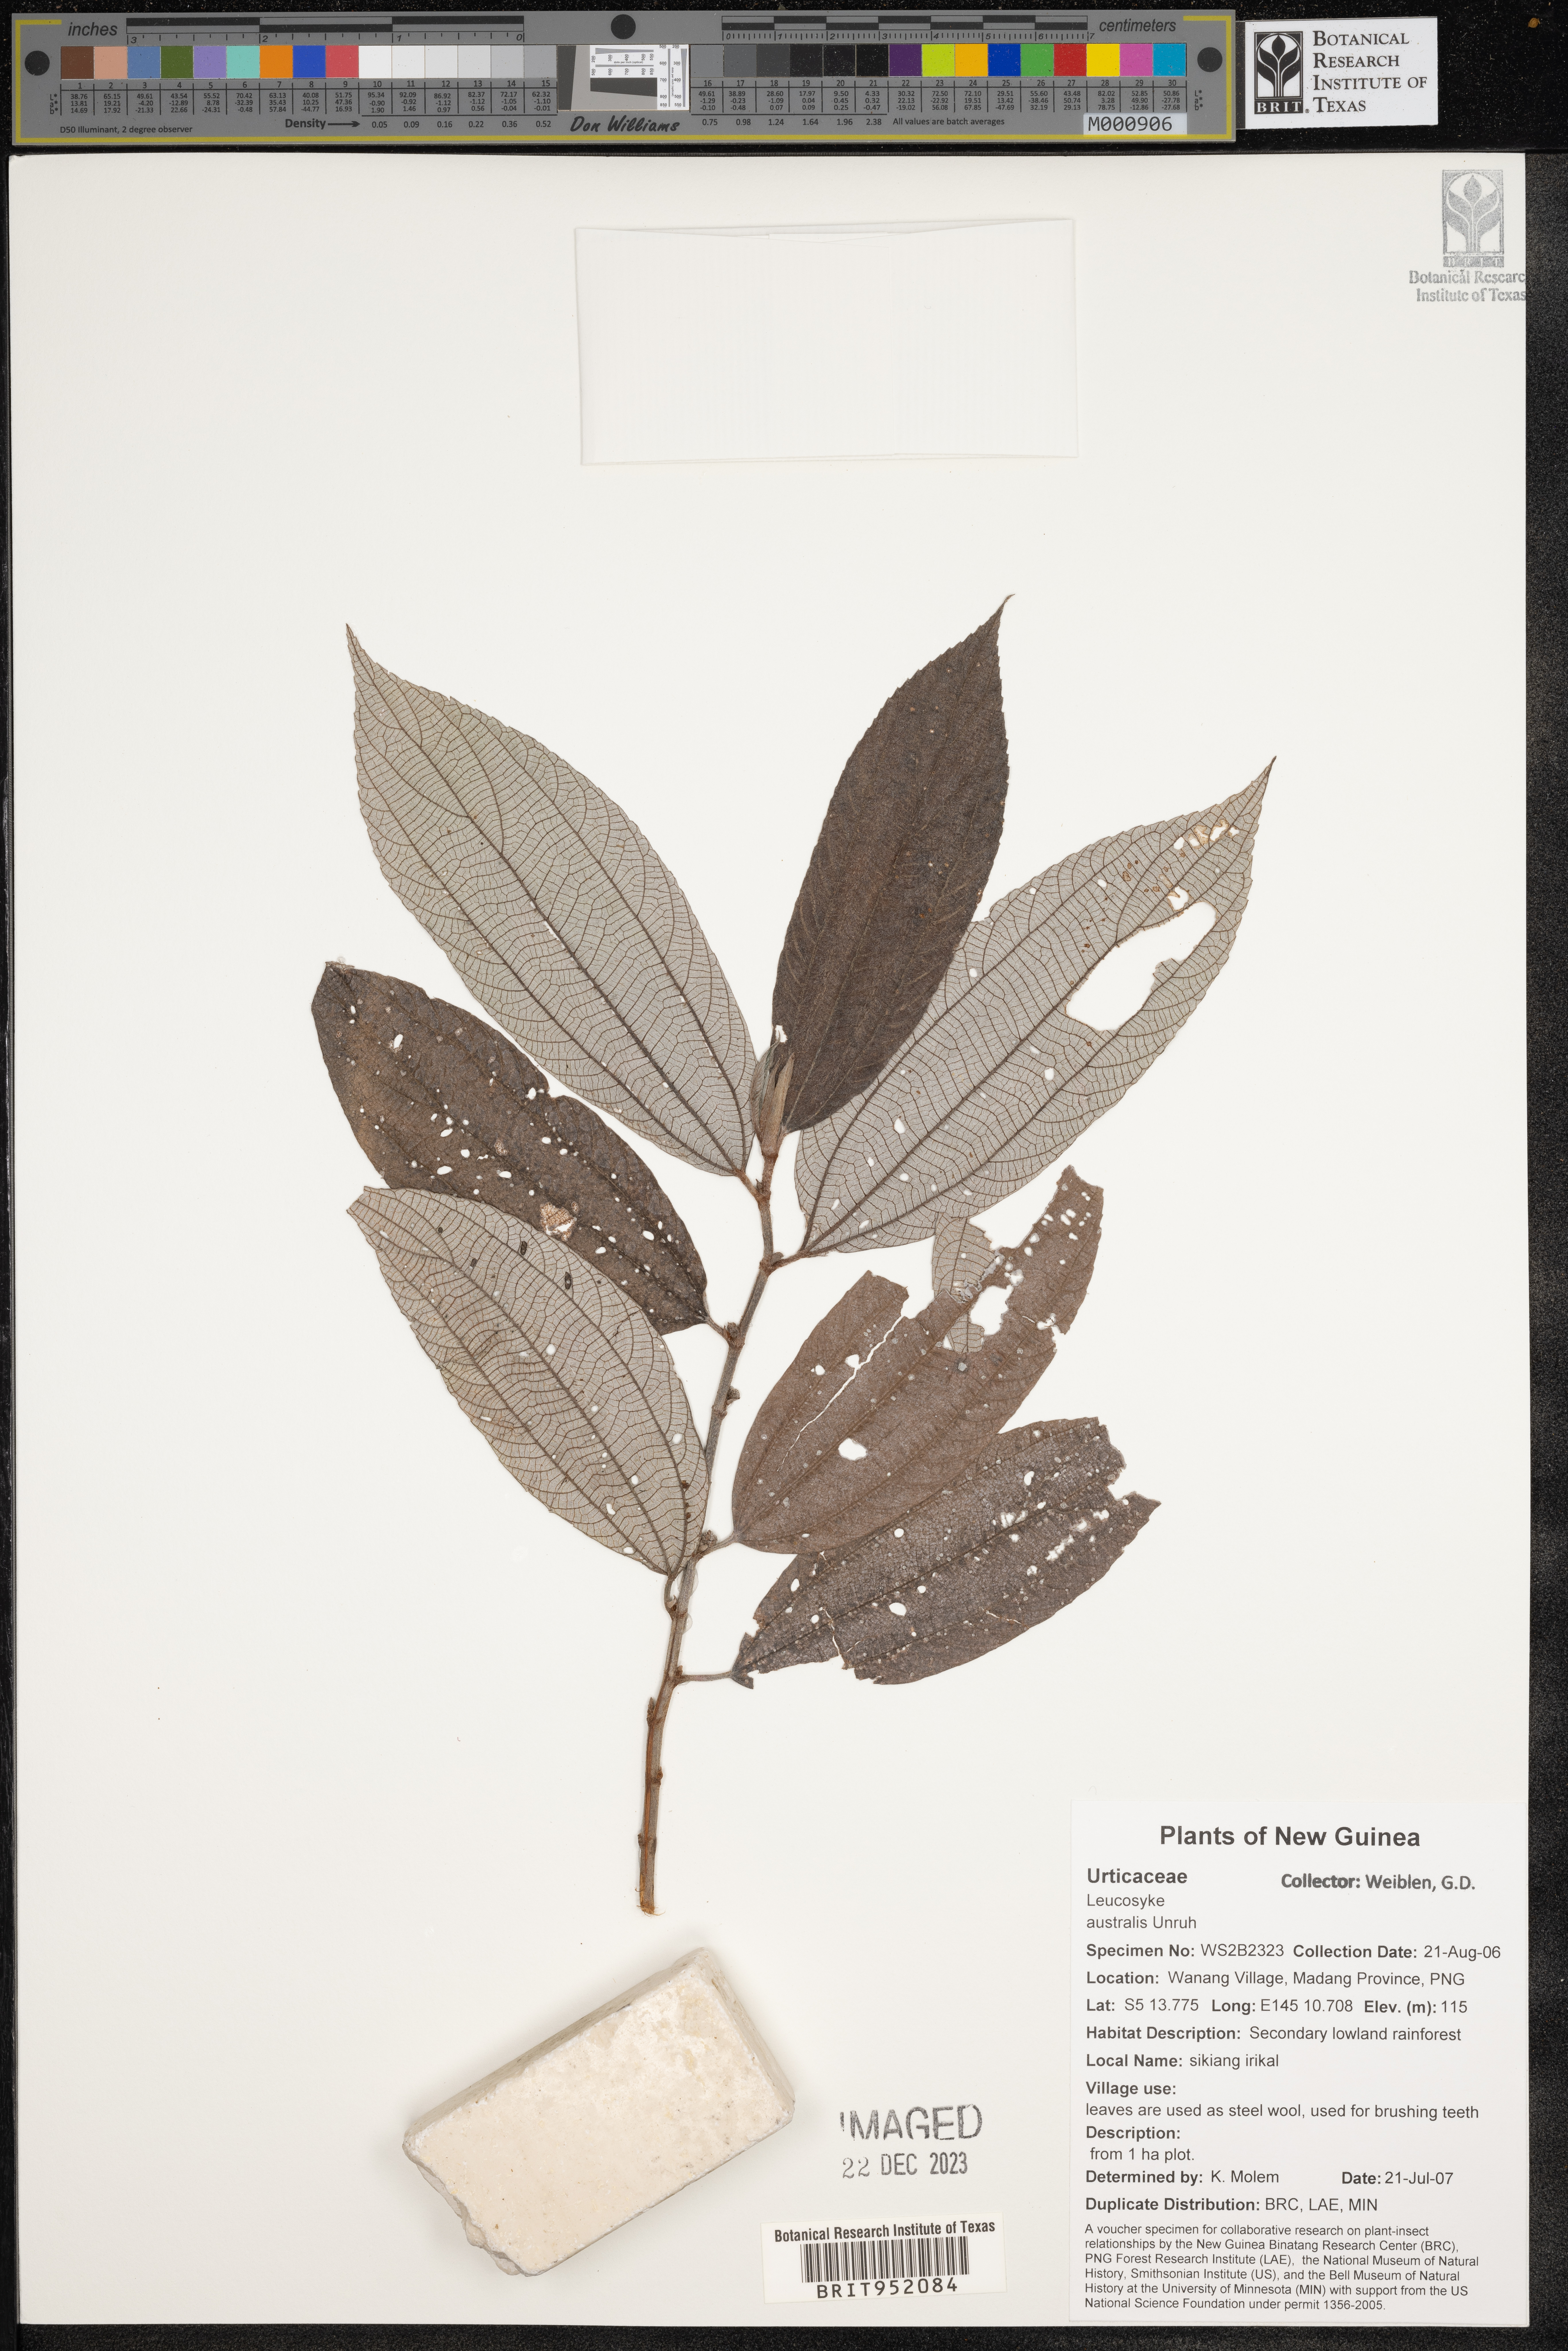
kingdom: Plantae
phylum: Tracheophyta
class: Magnoliopsida
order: Rosales
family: Urticaceae
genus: Leucosyke
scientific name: Leucosyke
